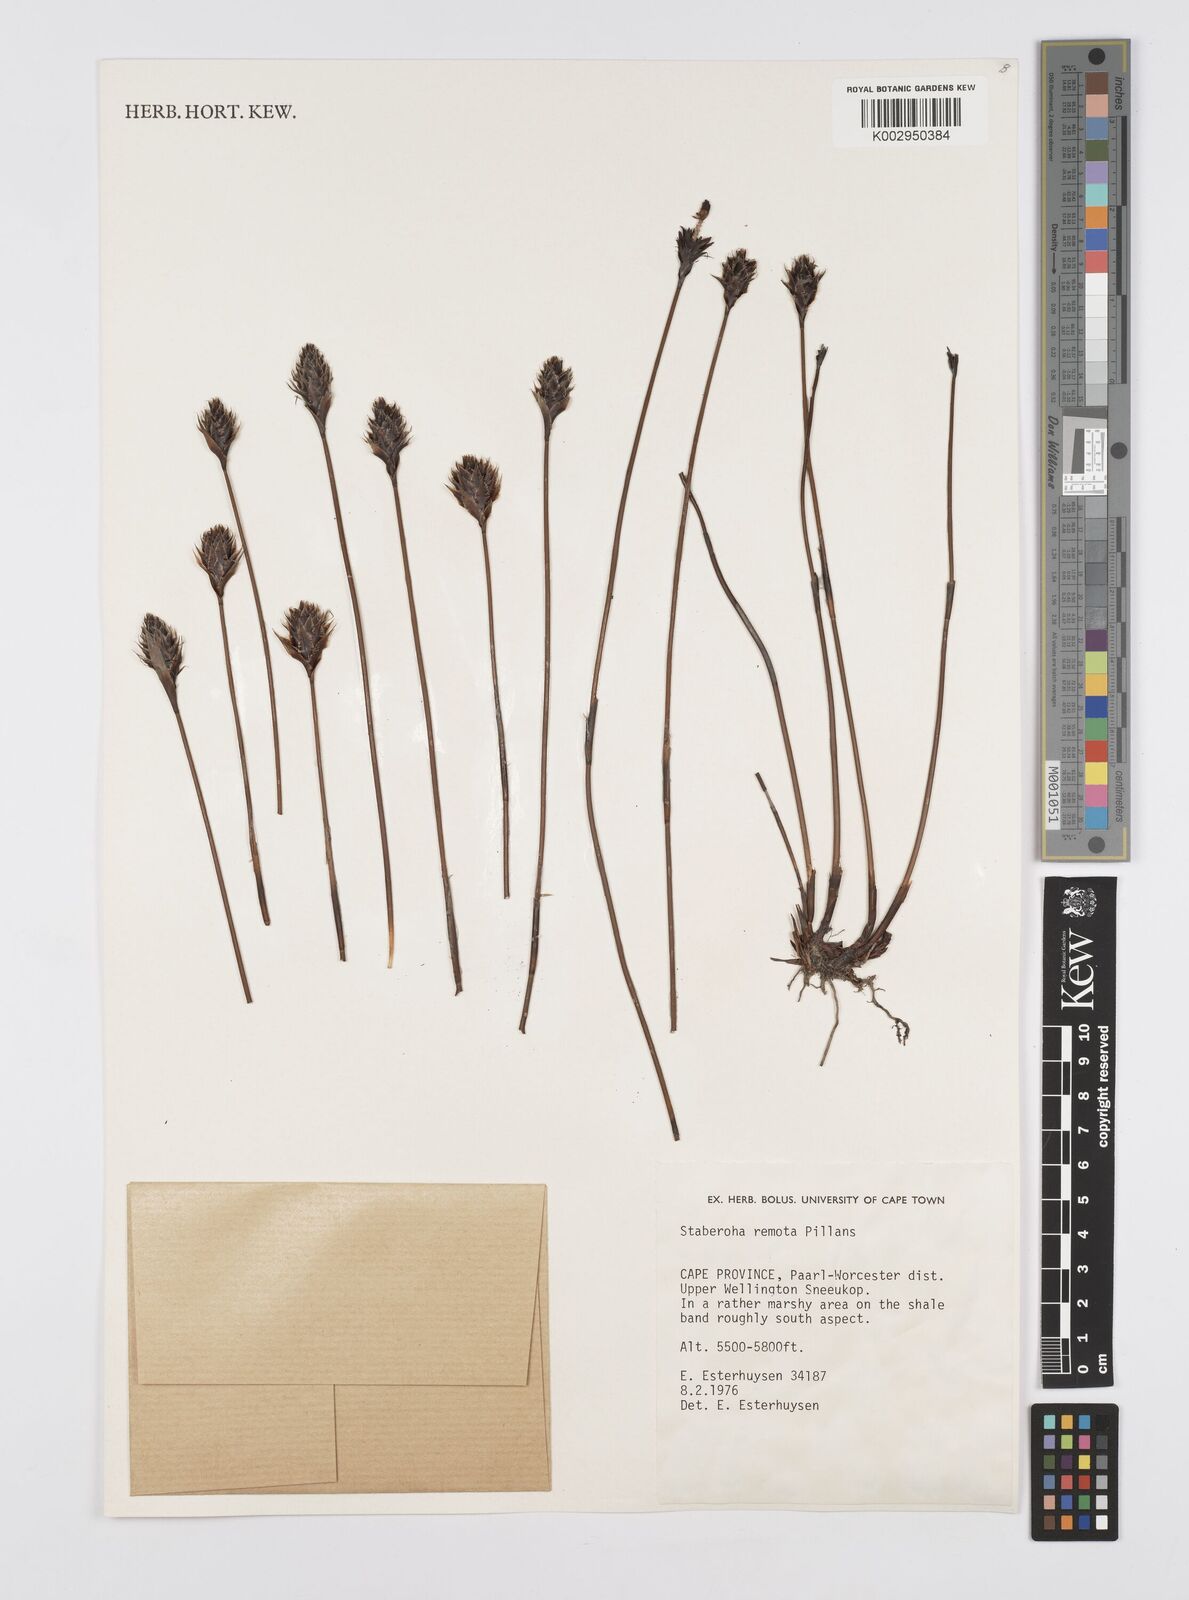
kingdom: Plantae
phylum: Tracheophyta
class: Liliopsida
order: Poales
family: Restionaceae
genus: Staberoha
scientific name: Staberoha remota
